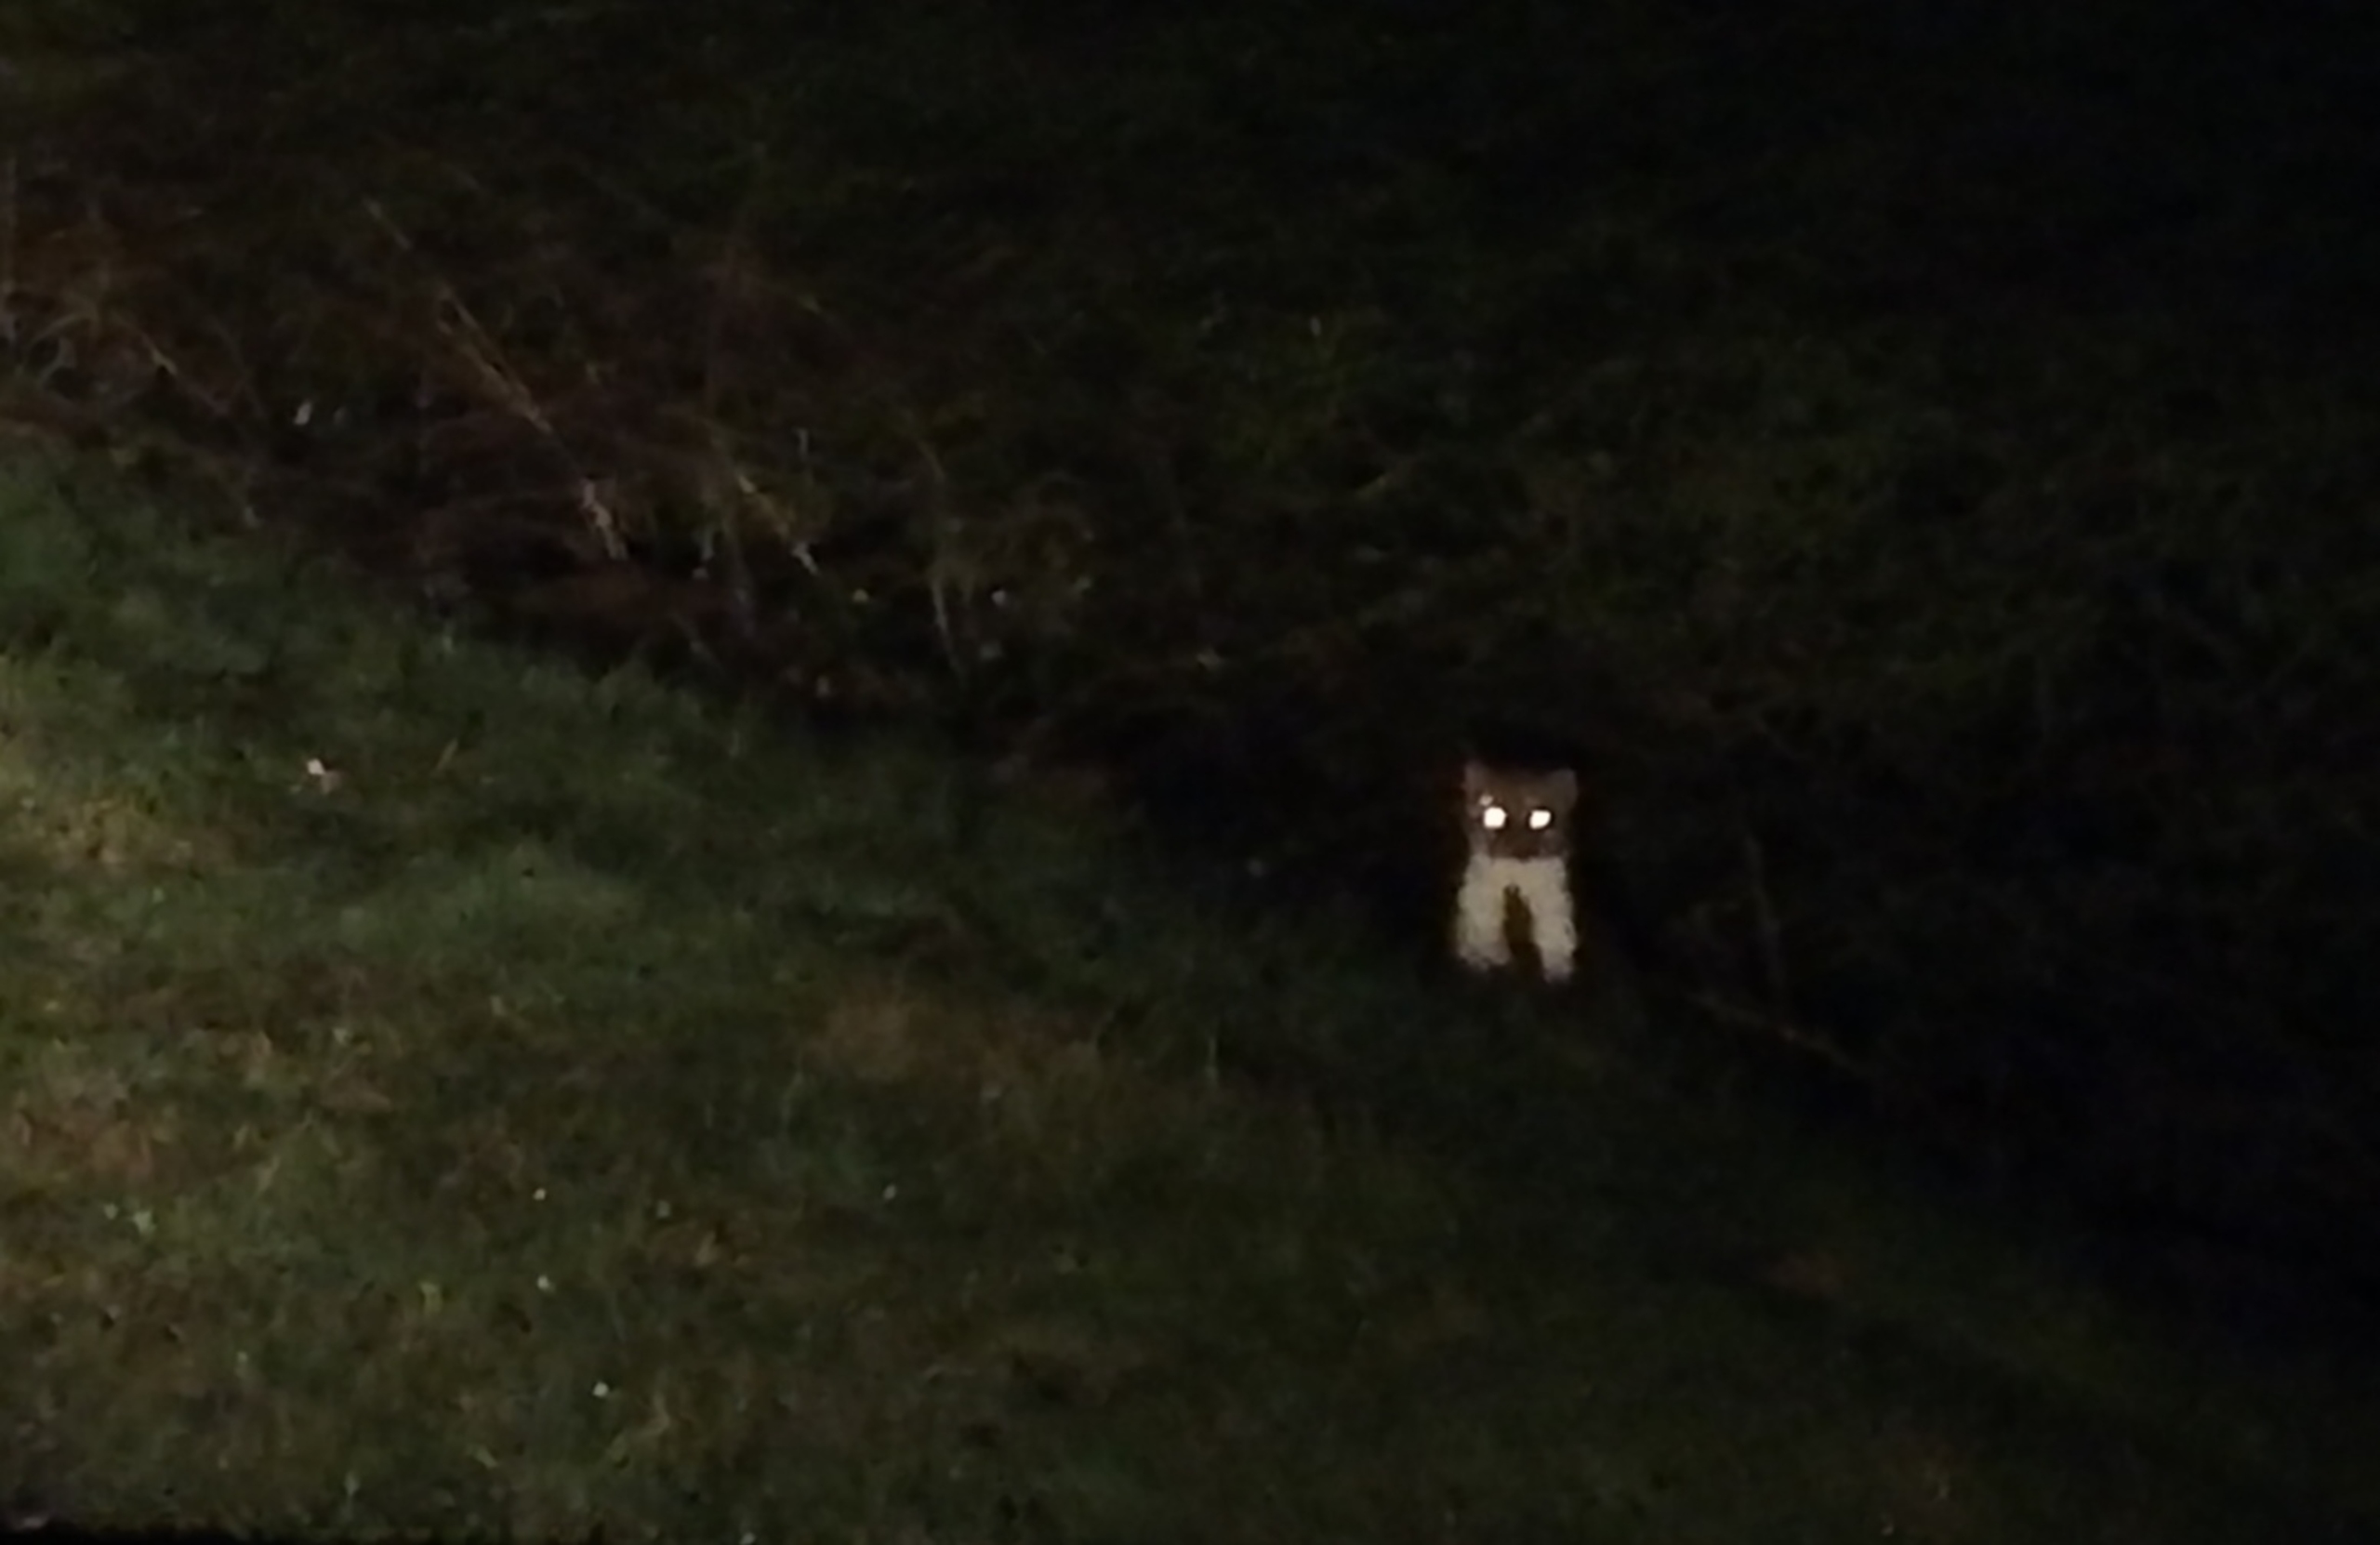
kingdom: Animalia
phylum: Chordata
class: Mammalia
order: Carnivora
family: Mustelidae
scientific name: Mustelidae
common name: Mårer
